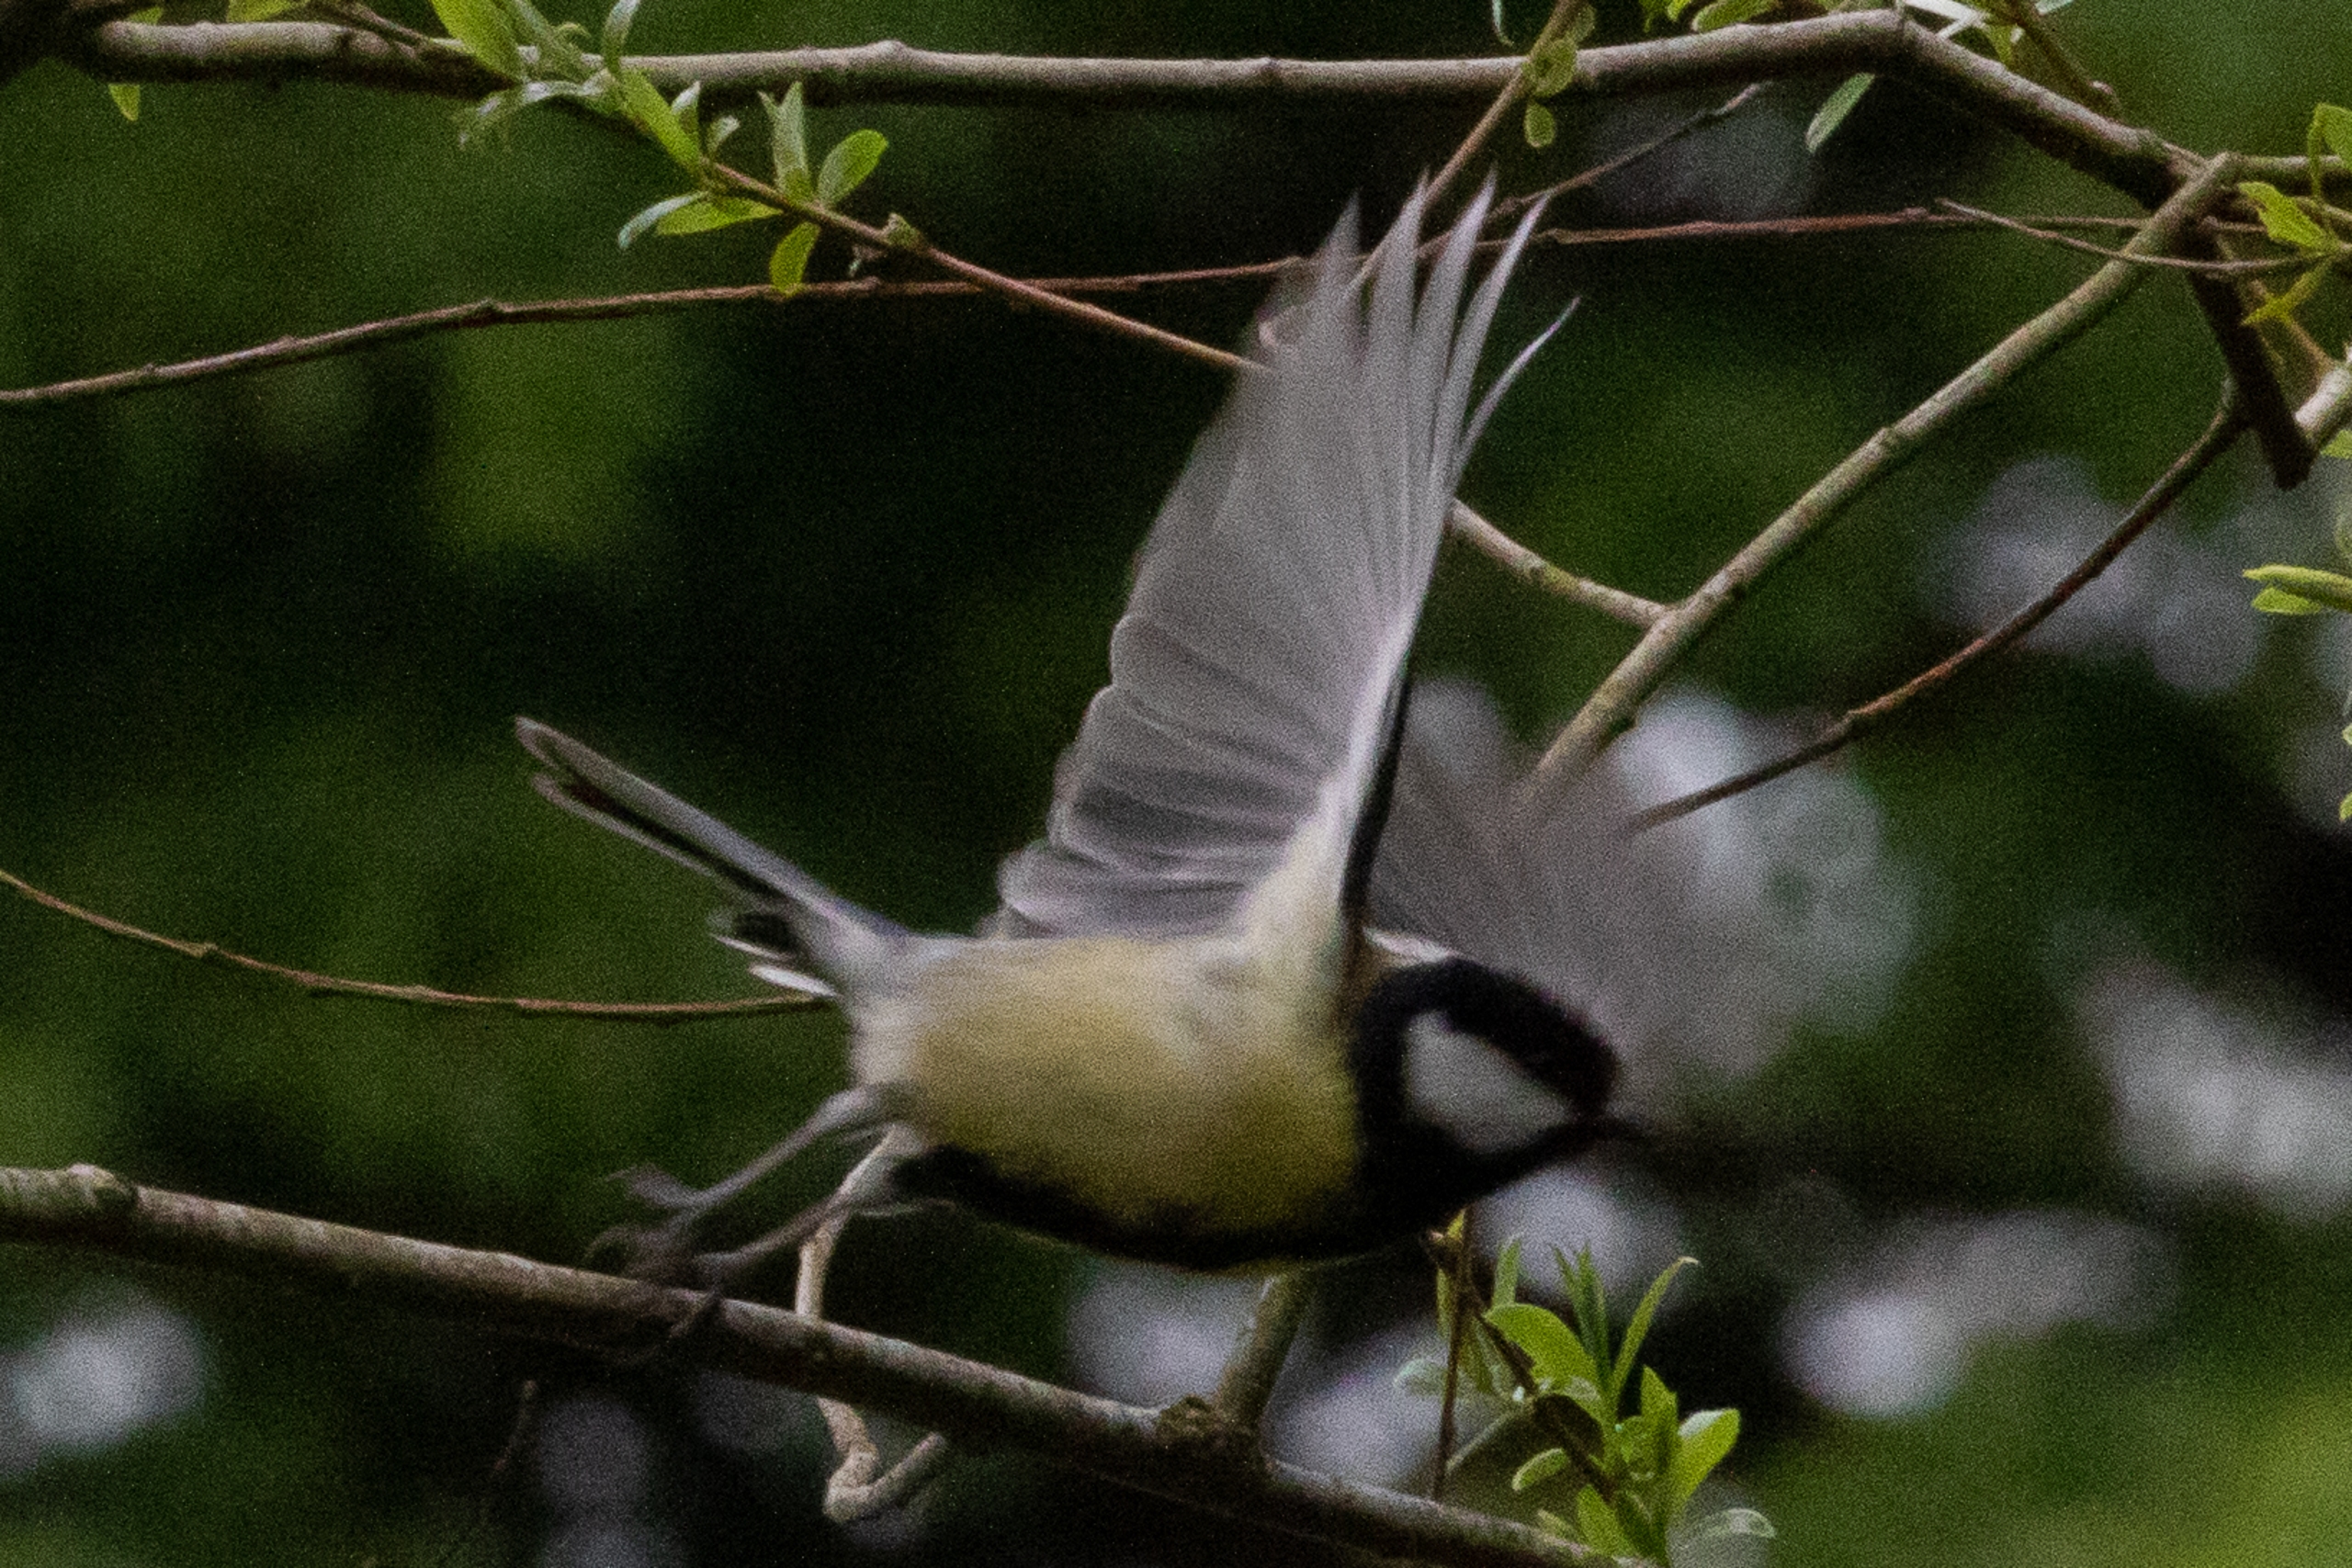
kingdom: Animalia
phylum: Chordata
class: Aves
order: Passeriformes
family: Paridae
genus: Parus
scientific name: Parus major
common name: Musvit
